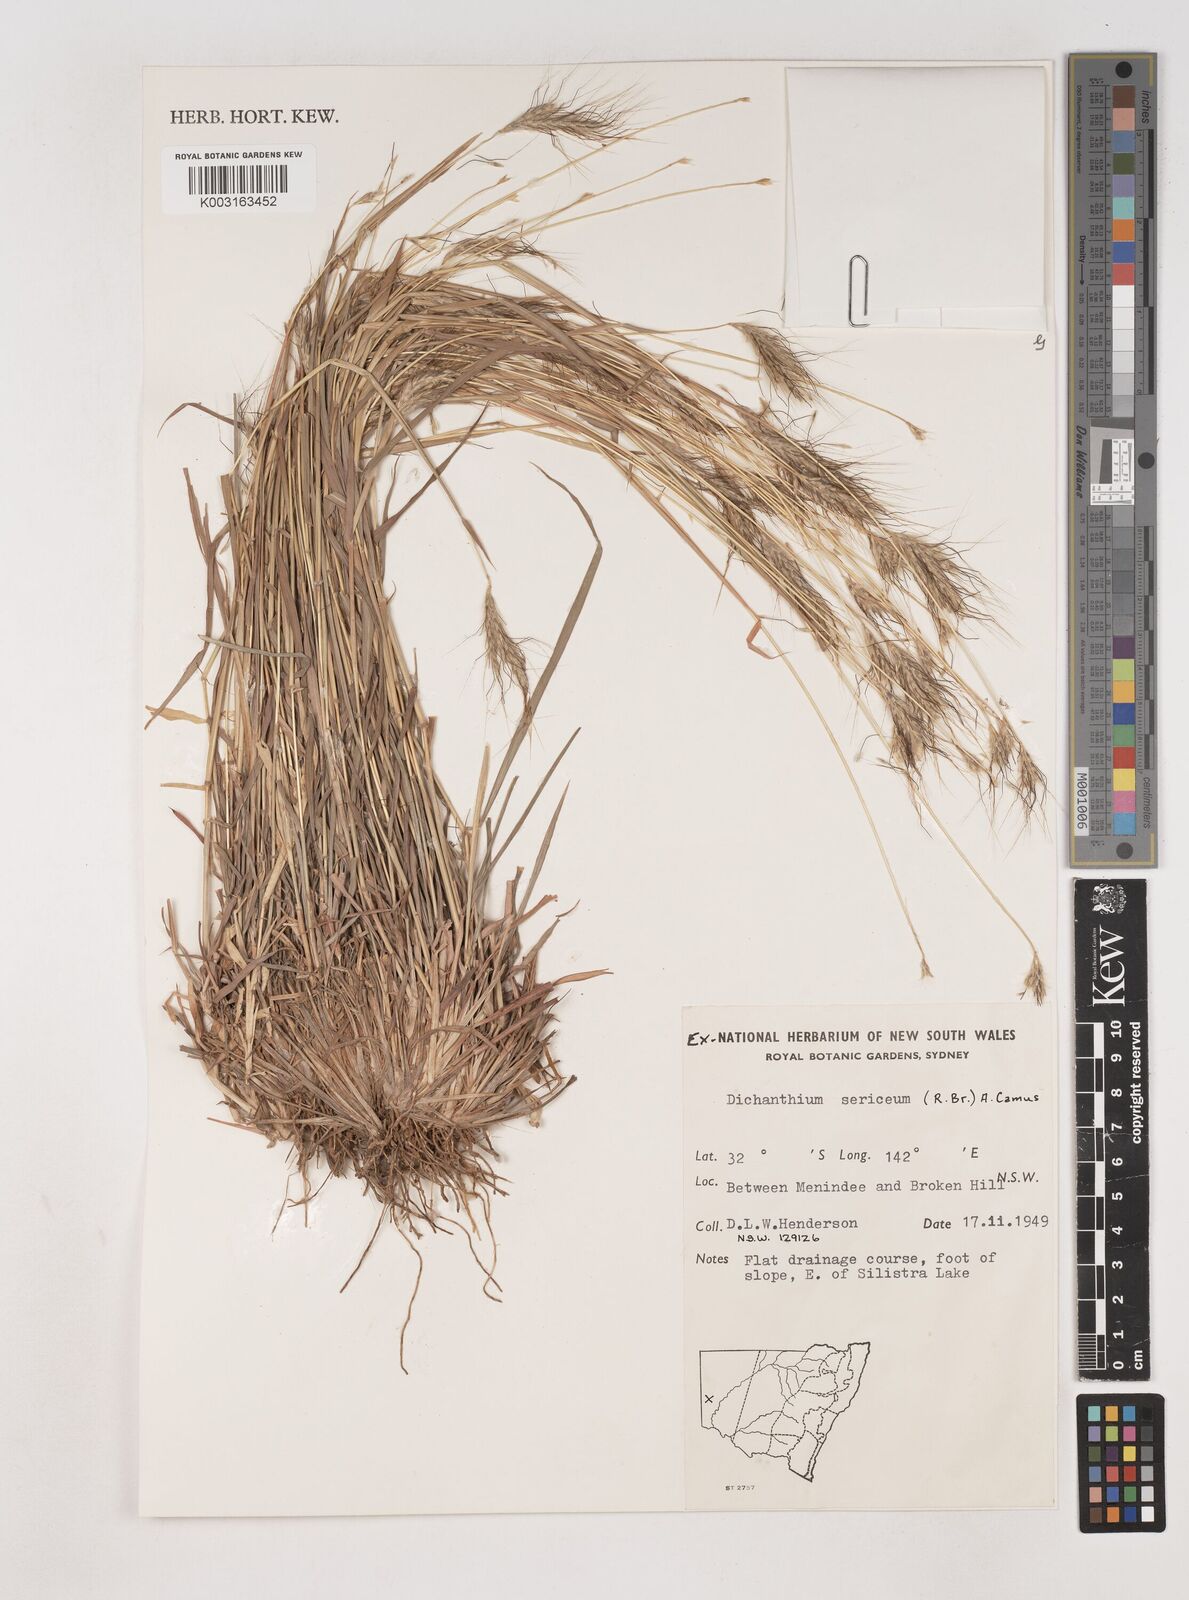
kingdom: Plantae
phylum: Tracheophyta
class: Liliopsida
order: Poales
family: Poaceae
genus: Dichanthium
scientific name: Dichanthium sericeum
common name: Silky bluestem
